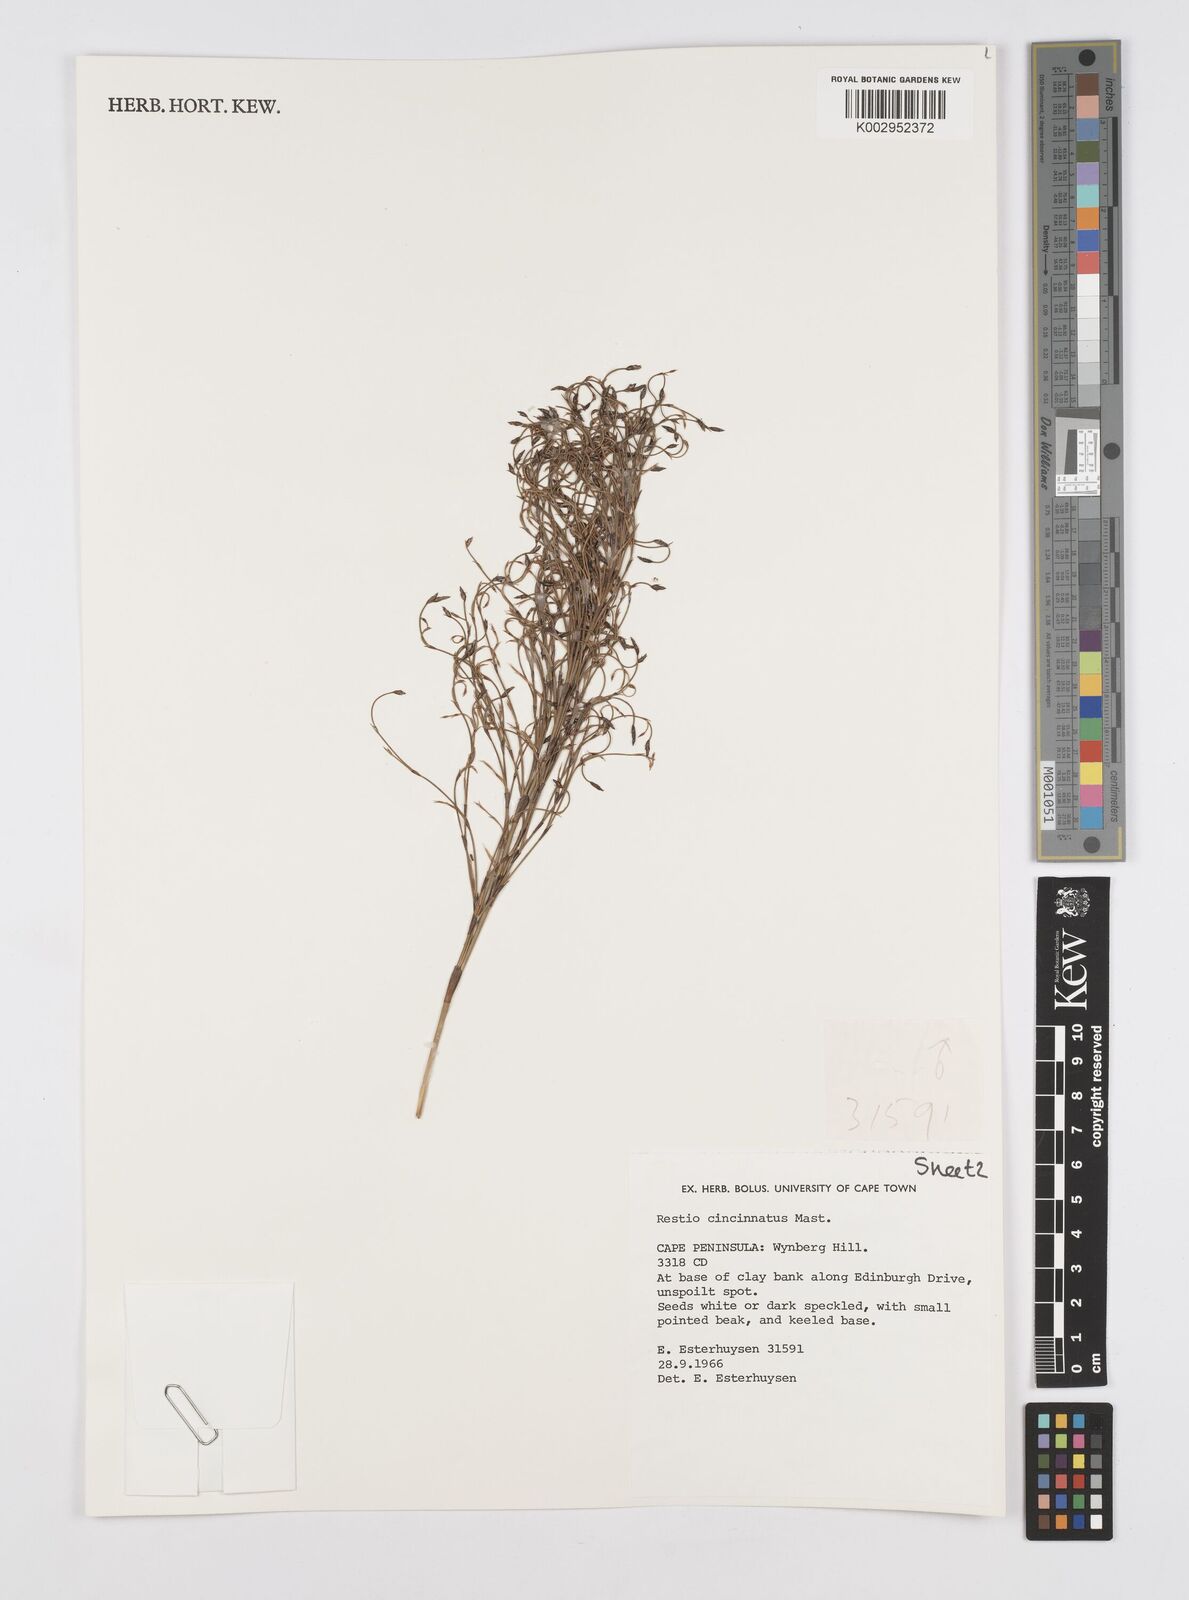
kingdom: Plantae
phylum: Tracheophyta
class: Liliopsida
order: Poales
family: Restionaceae
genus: Restio
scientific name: Restio cincinnatus
